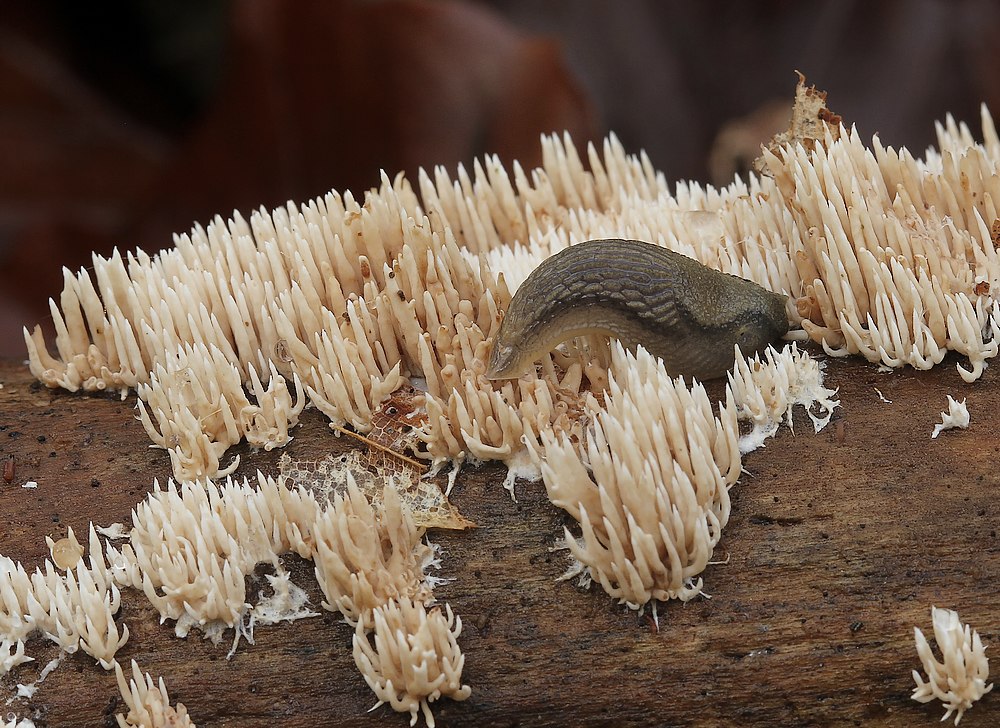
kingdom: Fungi
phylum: Basidiomycota
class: Agaricomycetes
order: Gomphales
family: Lentariaceae
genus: Hydnocristella
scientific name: Hydnocristella himantia
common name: brunlig koralpig
